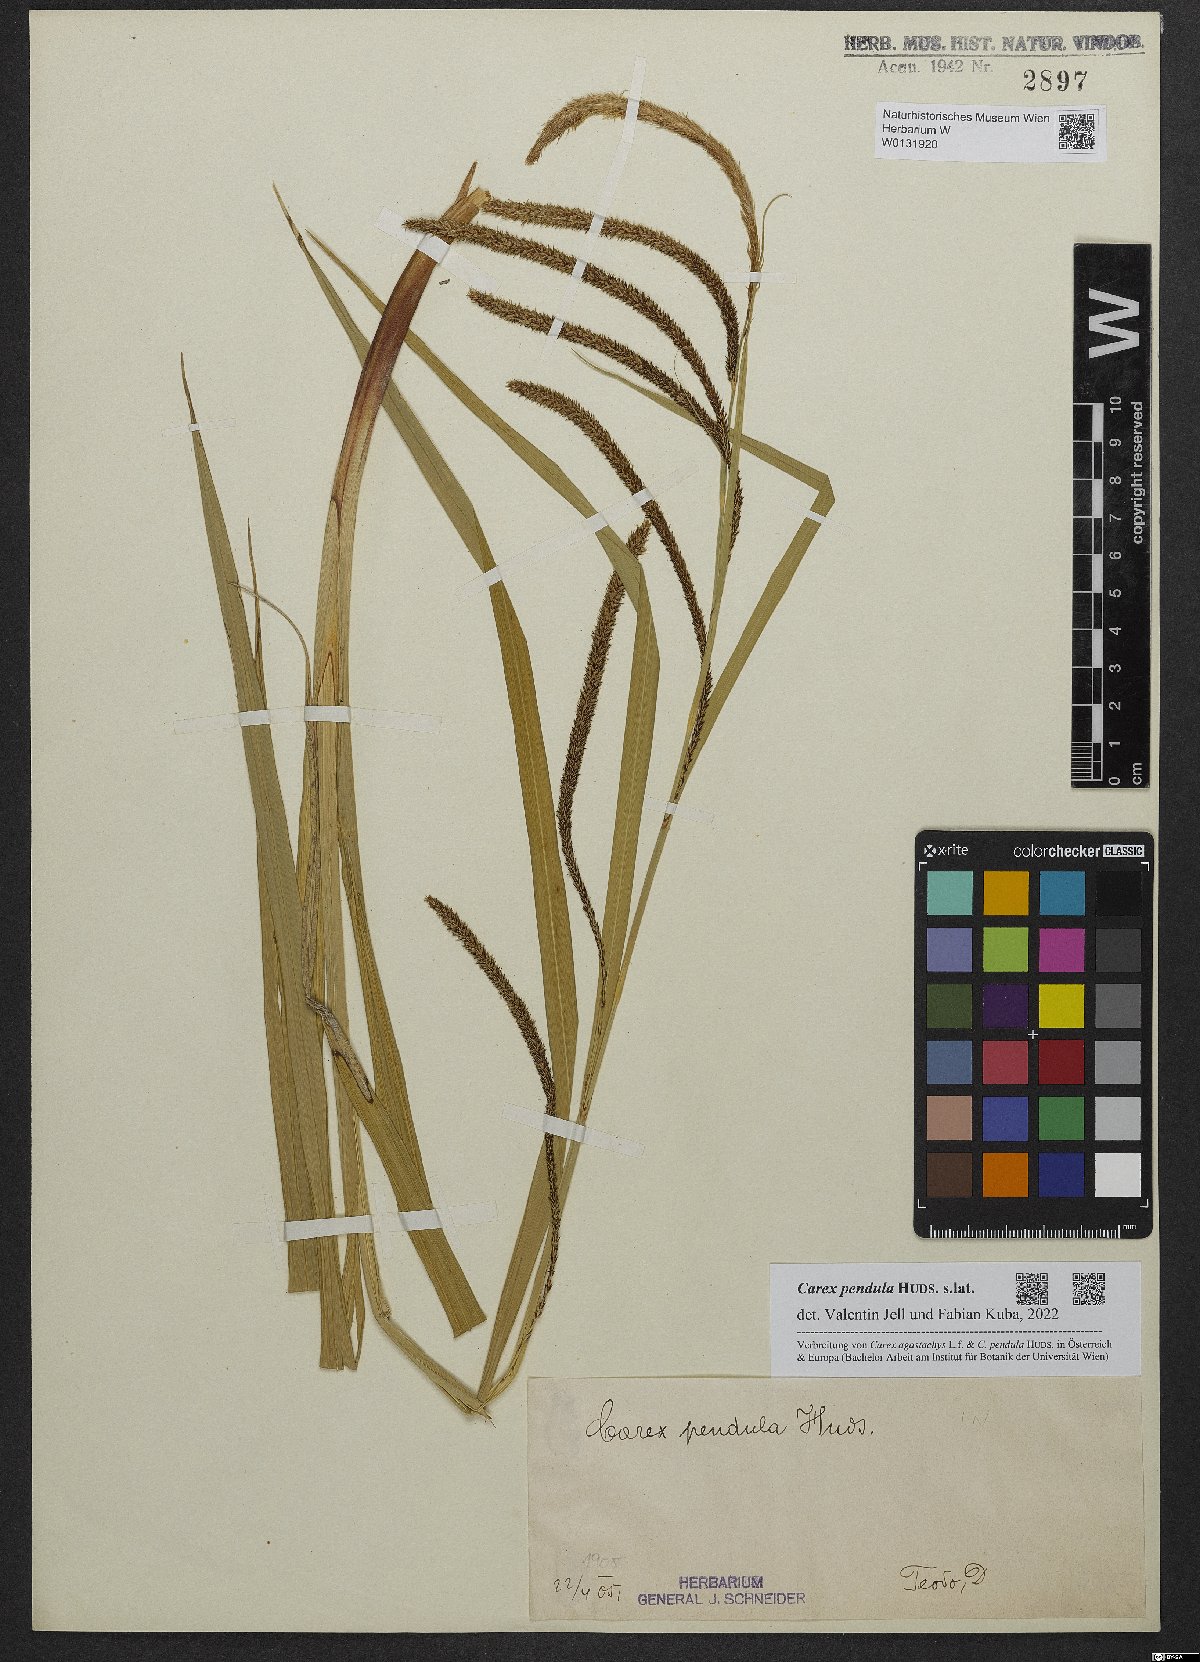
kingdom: Plantae
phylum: Tracheophyta
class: Liliopsida
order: Poales
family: Cyperaceae
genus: Carex
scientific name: Carex pendula
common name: Pendulous sedge
